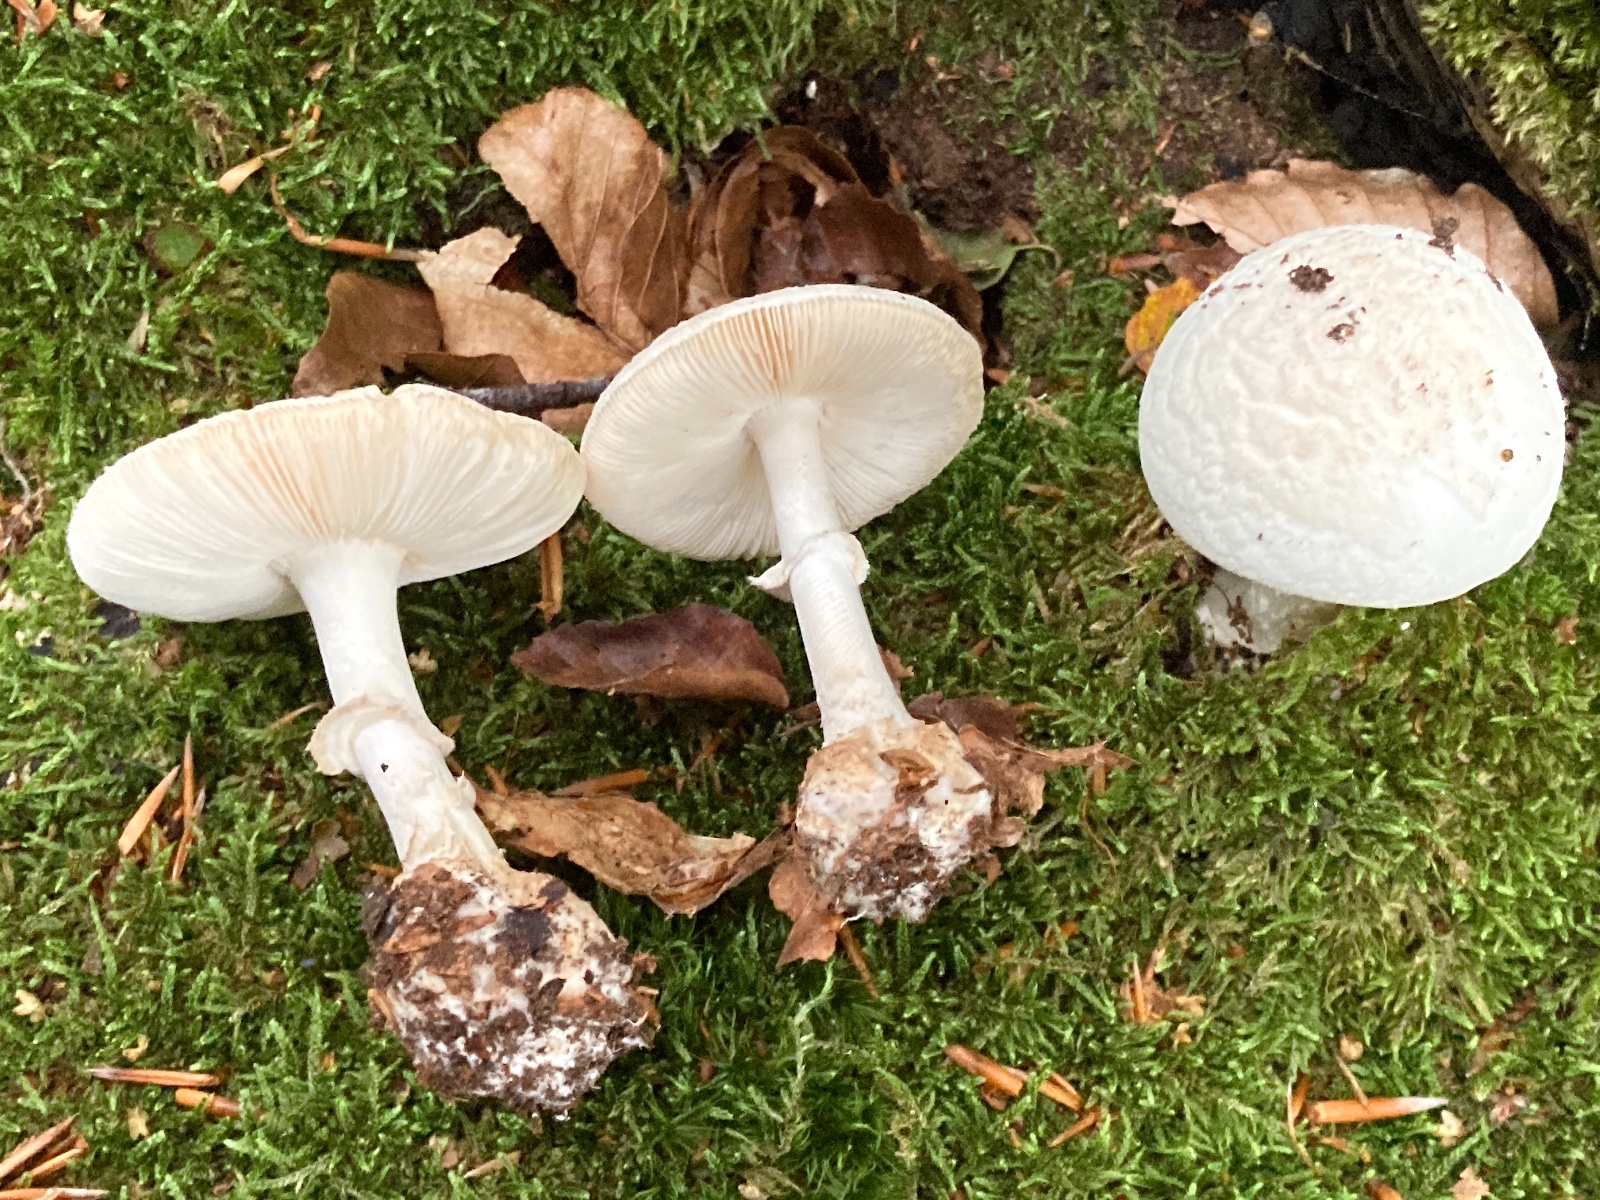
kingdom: Fungi
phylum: Basidiomycota
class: Agaricomycetes
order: Agaricales
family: Amanitaceae
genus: Amanita
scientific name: Amanita citrina
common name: kugleknoldet fluesvamp
